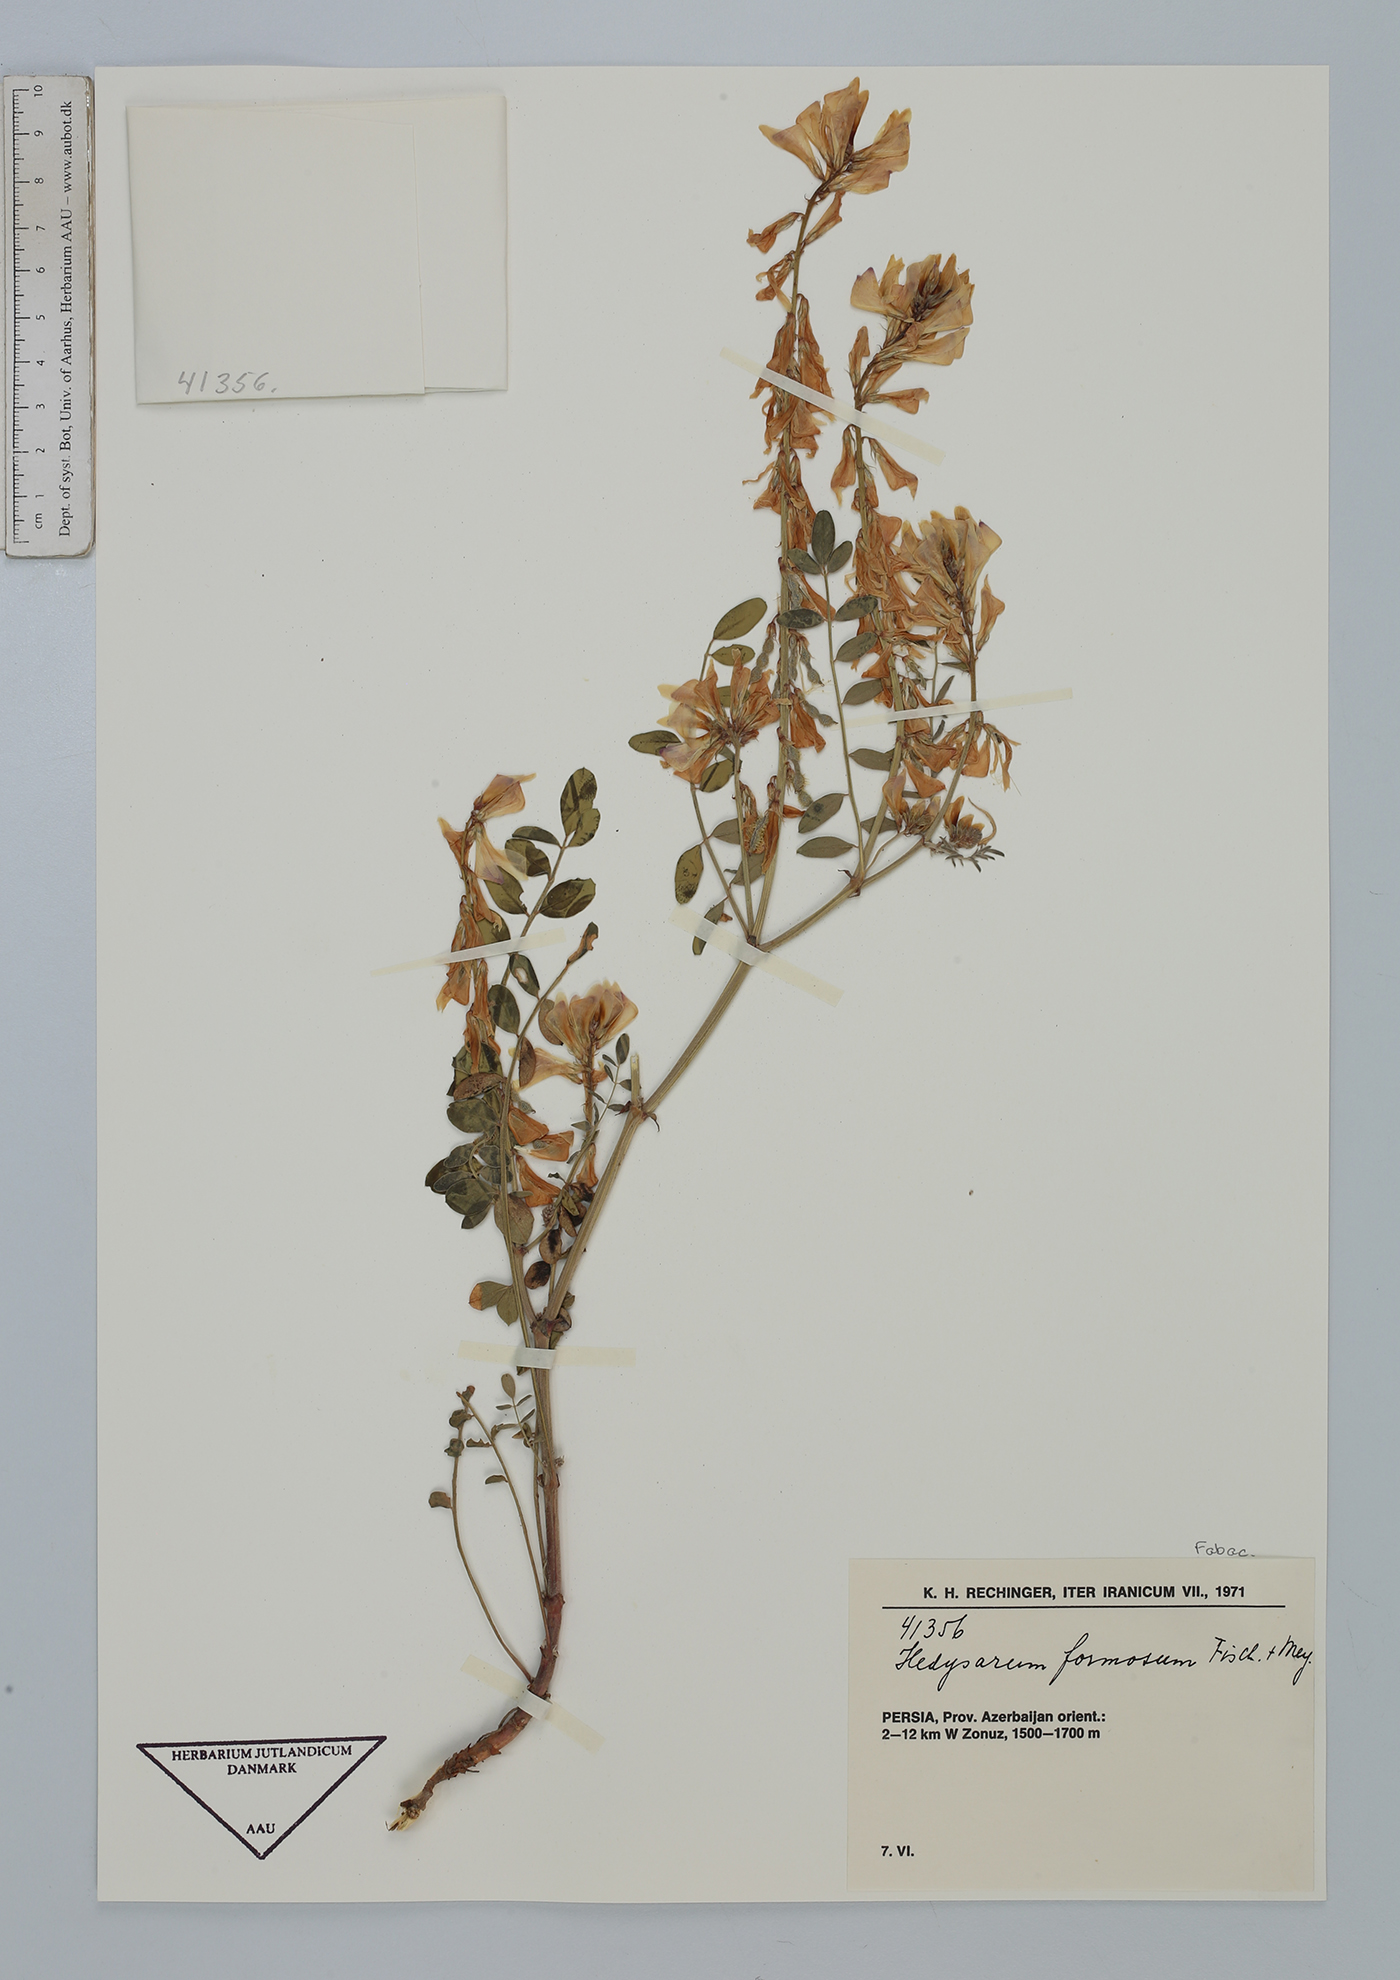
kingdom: Plantae
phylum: Tracheophyta
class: Magnoliopsida
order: Fabales
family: Fabaceae
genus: Hedysarum
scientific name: Hedysarum formosum
